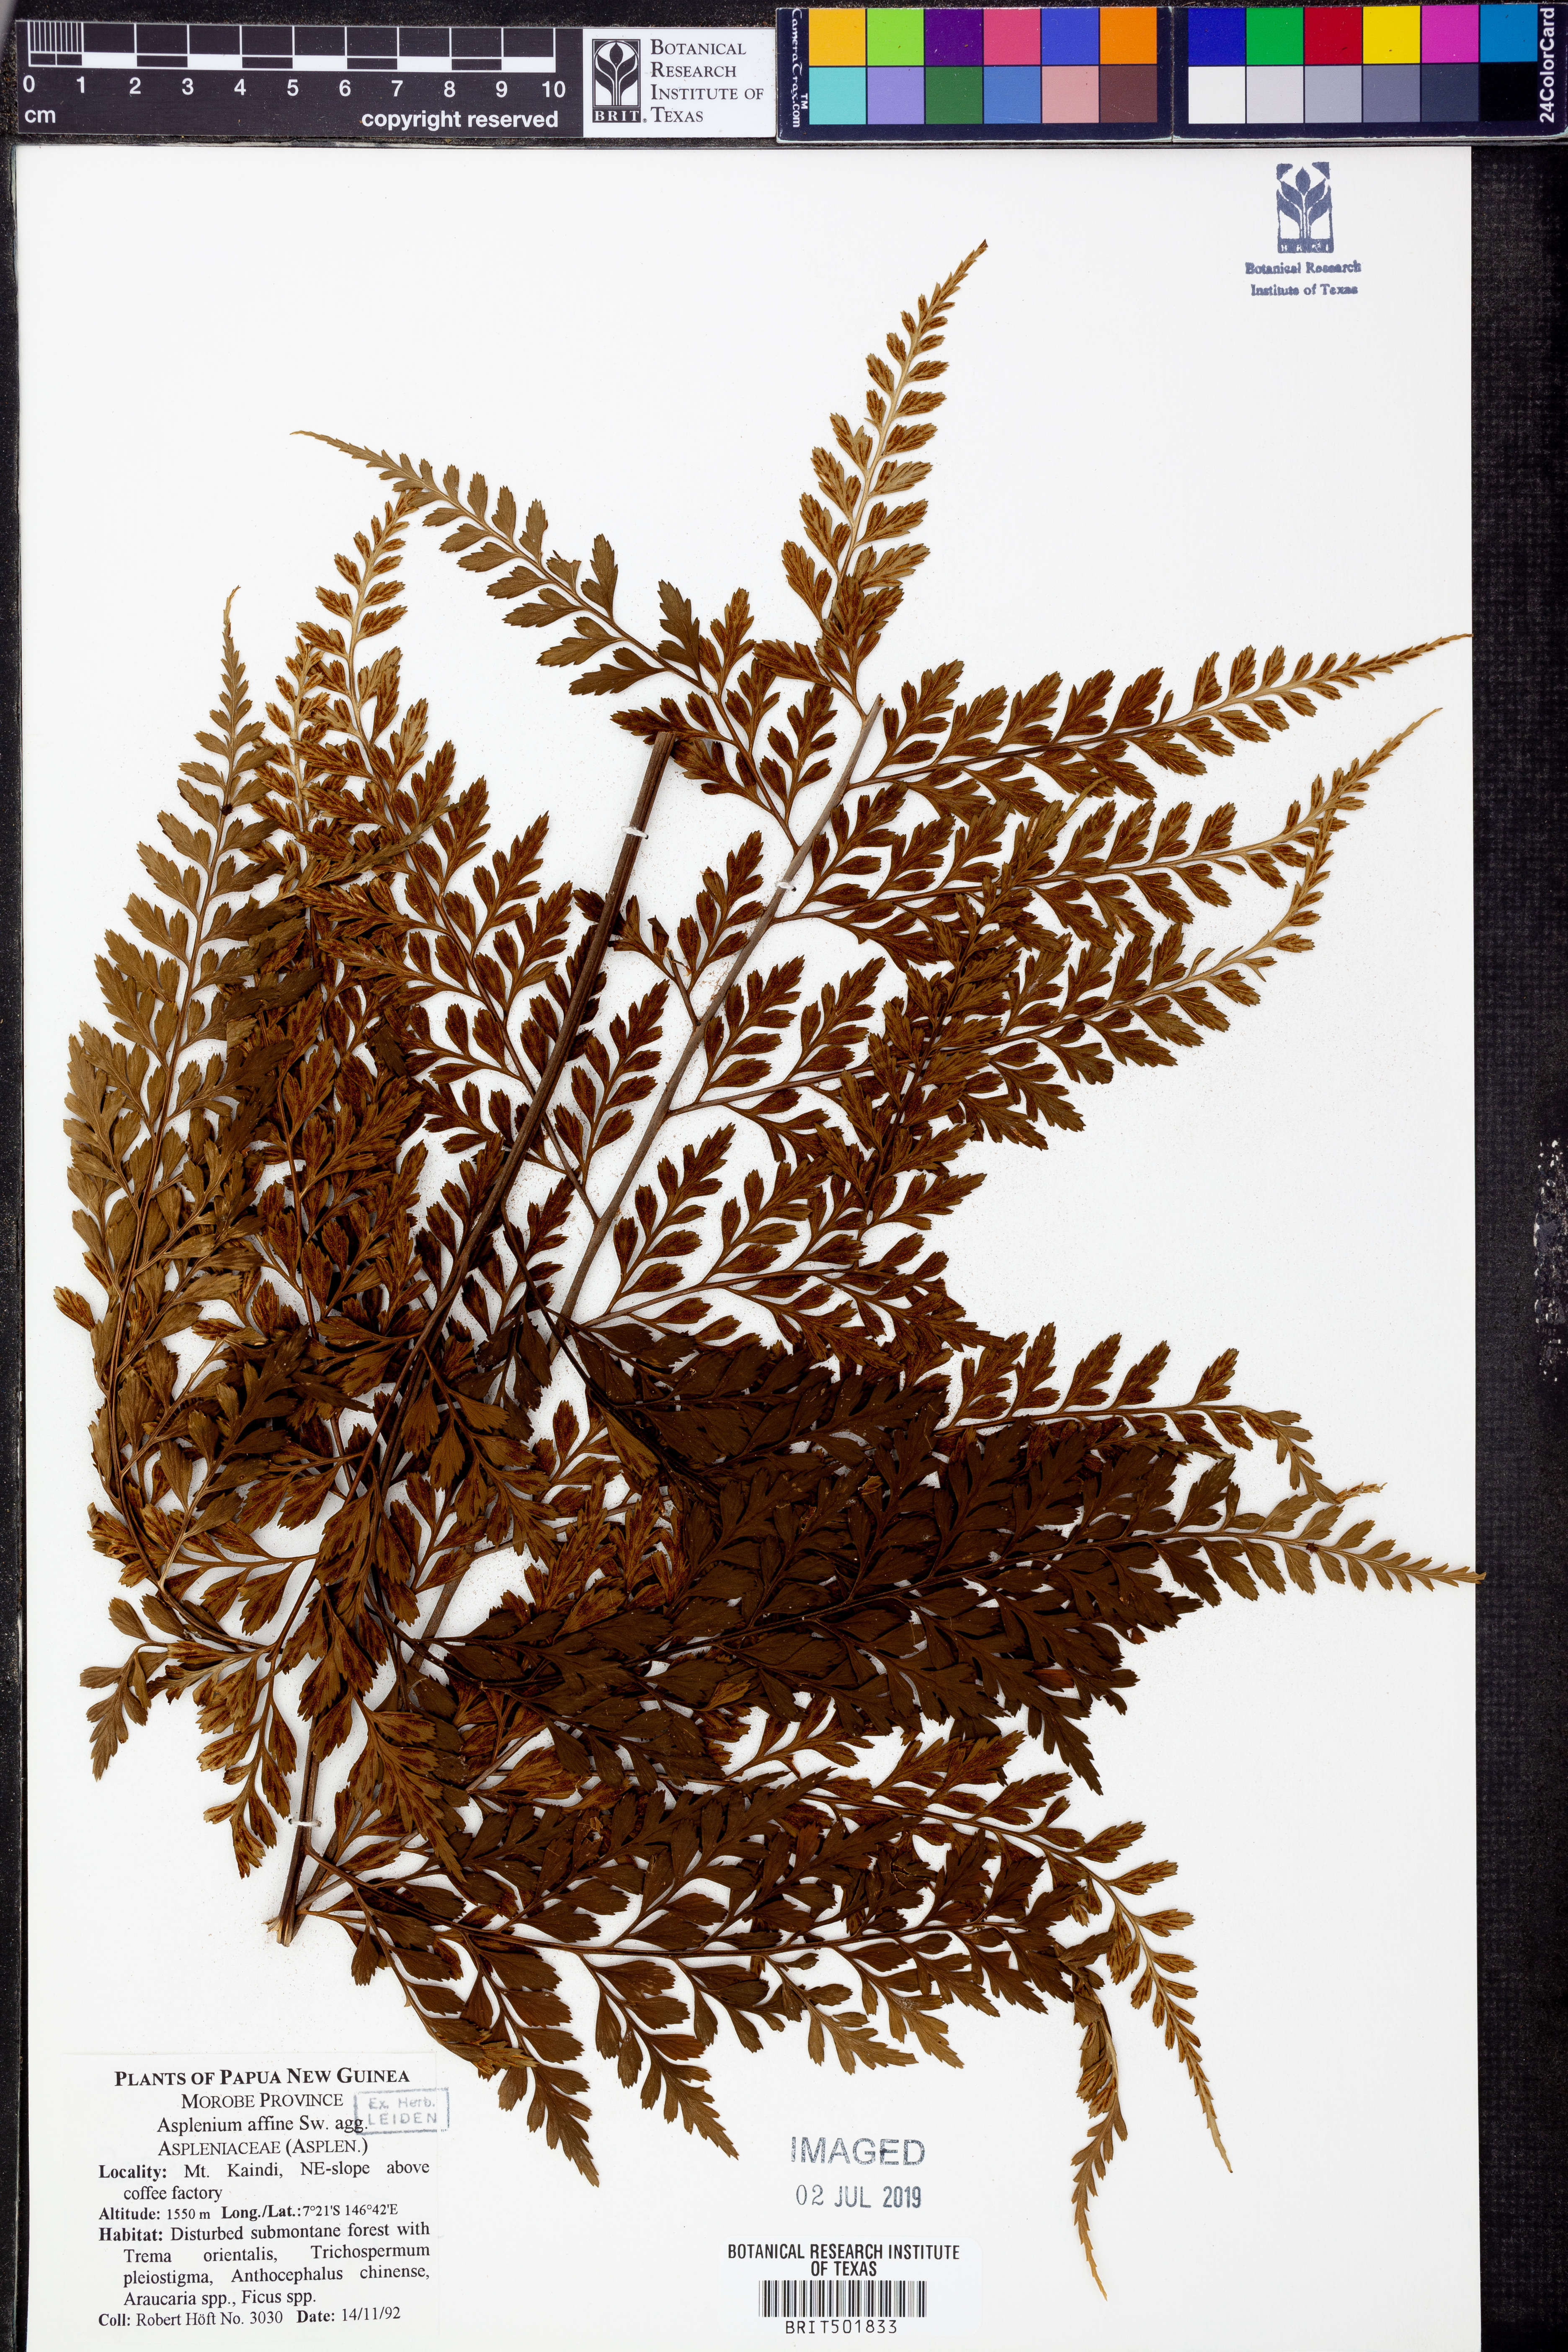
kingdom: Plantae
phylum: Tracheophyta
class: Polypodiopsida
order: Polypodiales
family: Aspleniaceae
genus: Asplenium
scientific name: Asplenium affine
